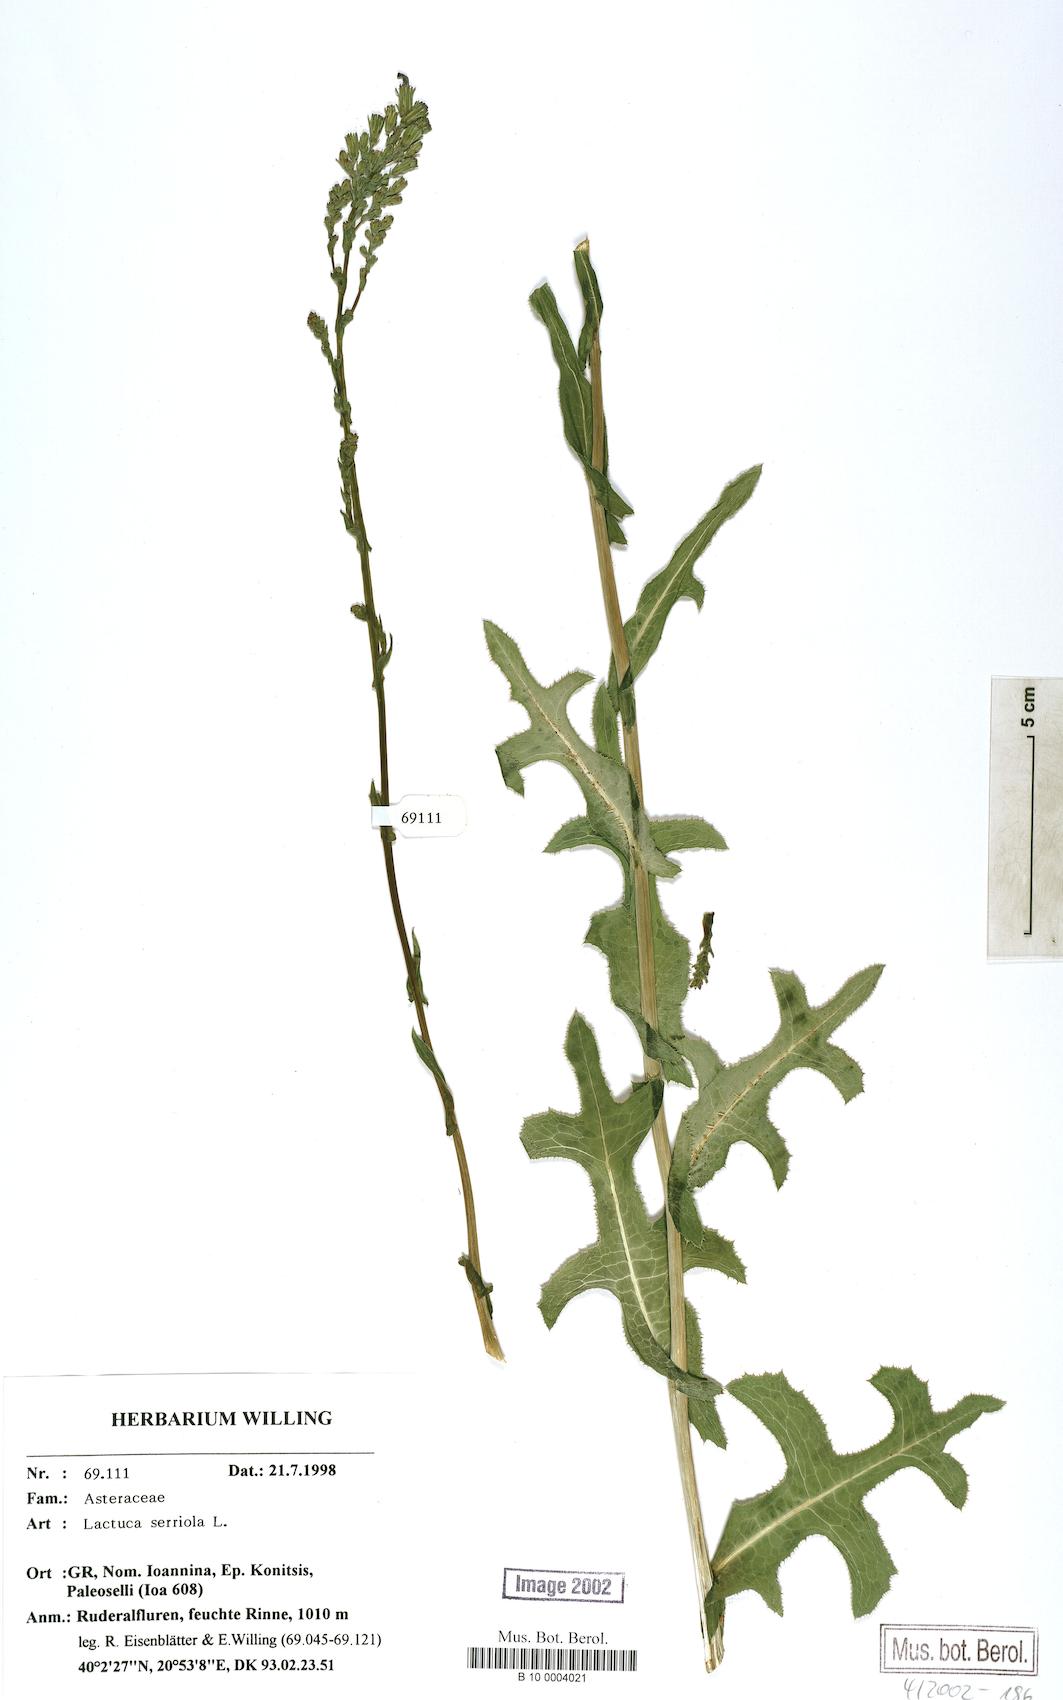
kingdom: Plantae
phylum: Tracheophyta
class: Magnoliopsida
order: Asterales
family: Asteraceae
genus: Lactuca
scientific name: Lactuca serriola
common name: Prickly lettuce
